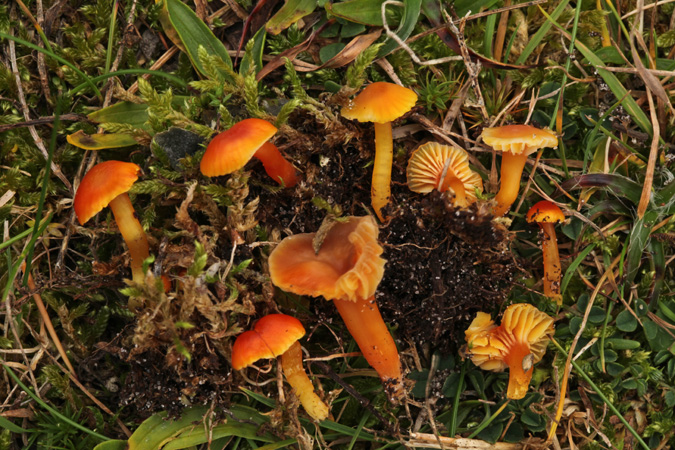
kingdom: Fungi
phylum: Basidiomycota
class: Agaricomycetes
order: Agaricales
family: Hygrophoraceae
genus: Hygrocybe
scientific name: Hygrocybe insipida
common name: liden vokshat
